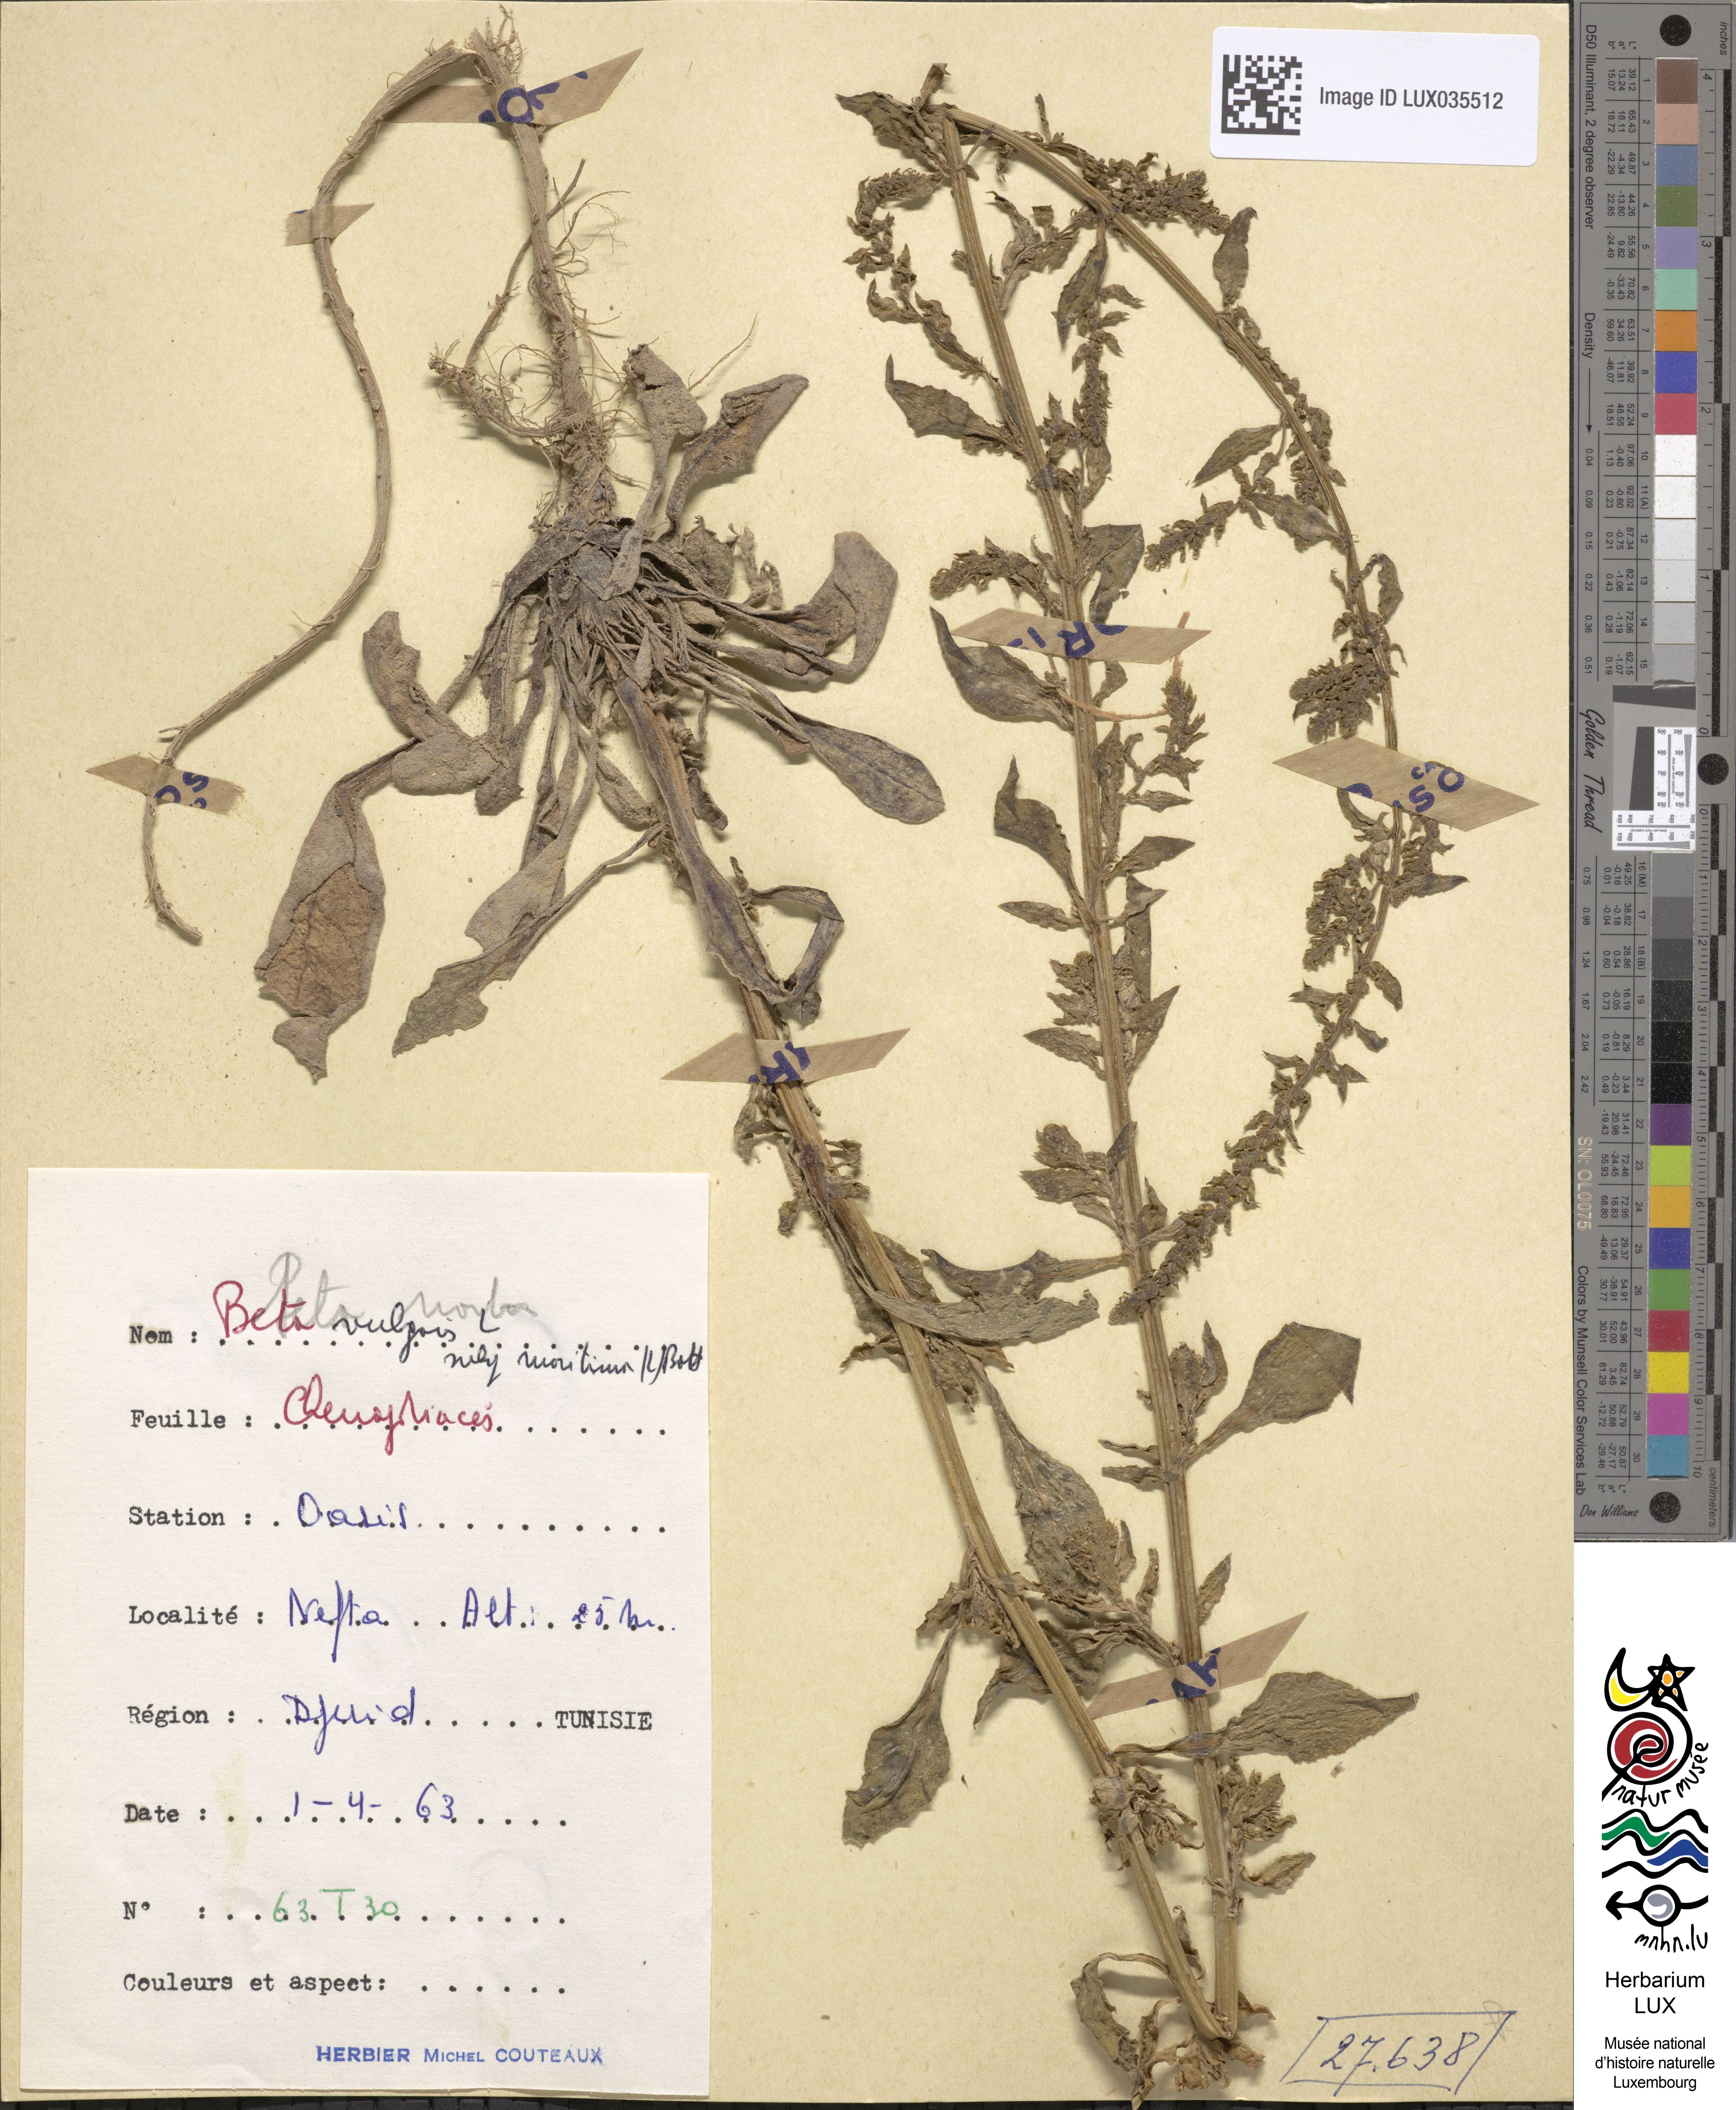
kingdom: Plantae
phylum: Tracheophyta
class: Magnoliopsida
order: Caryophyllales
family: Amaranthaceae
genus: Beta
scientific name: Beta maritima
